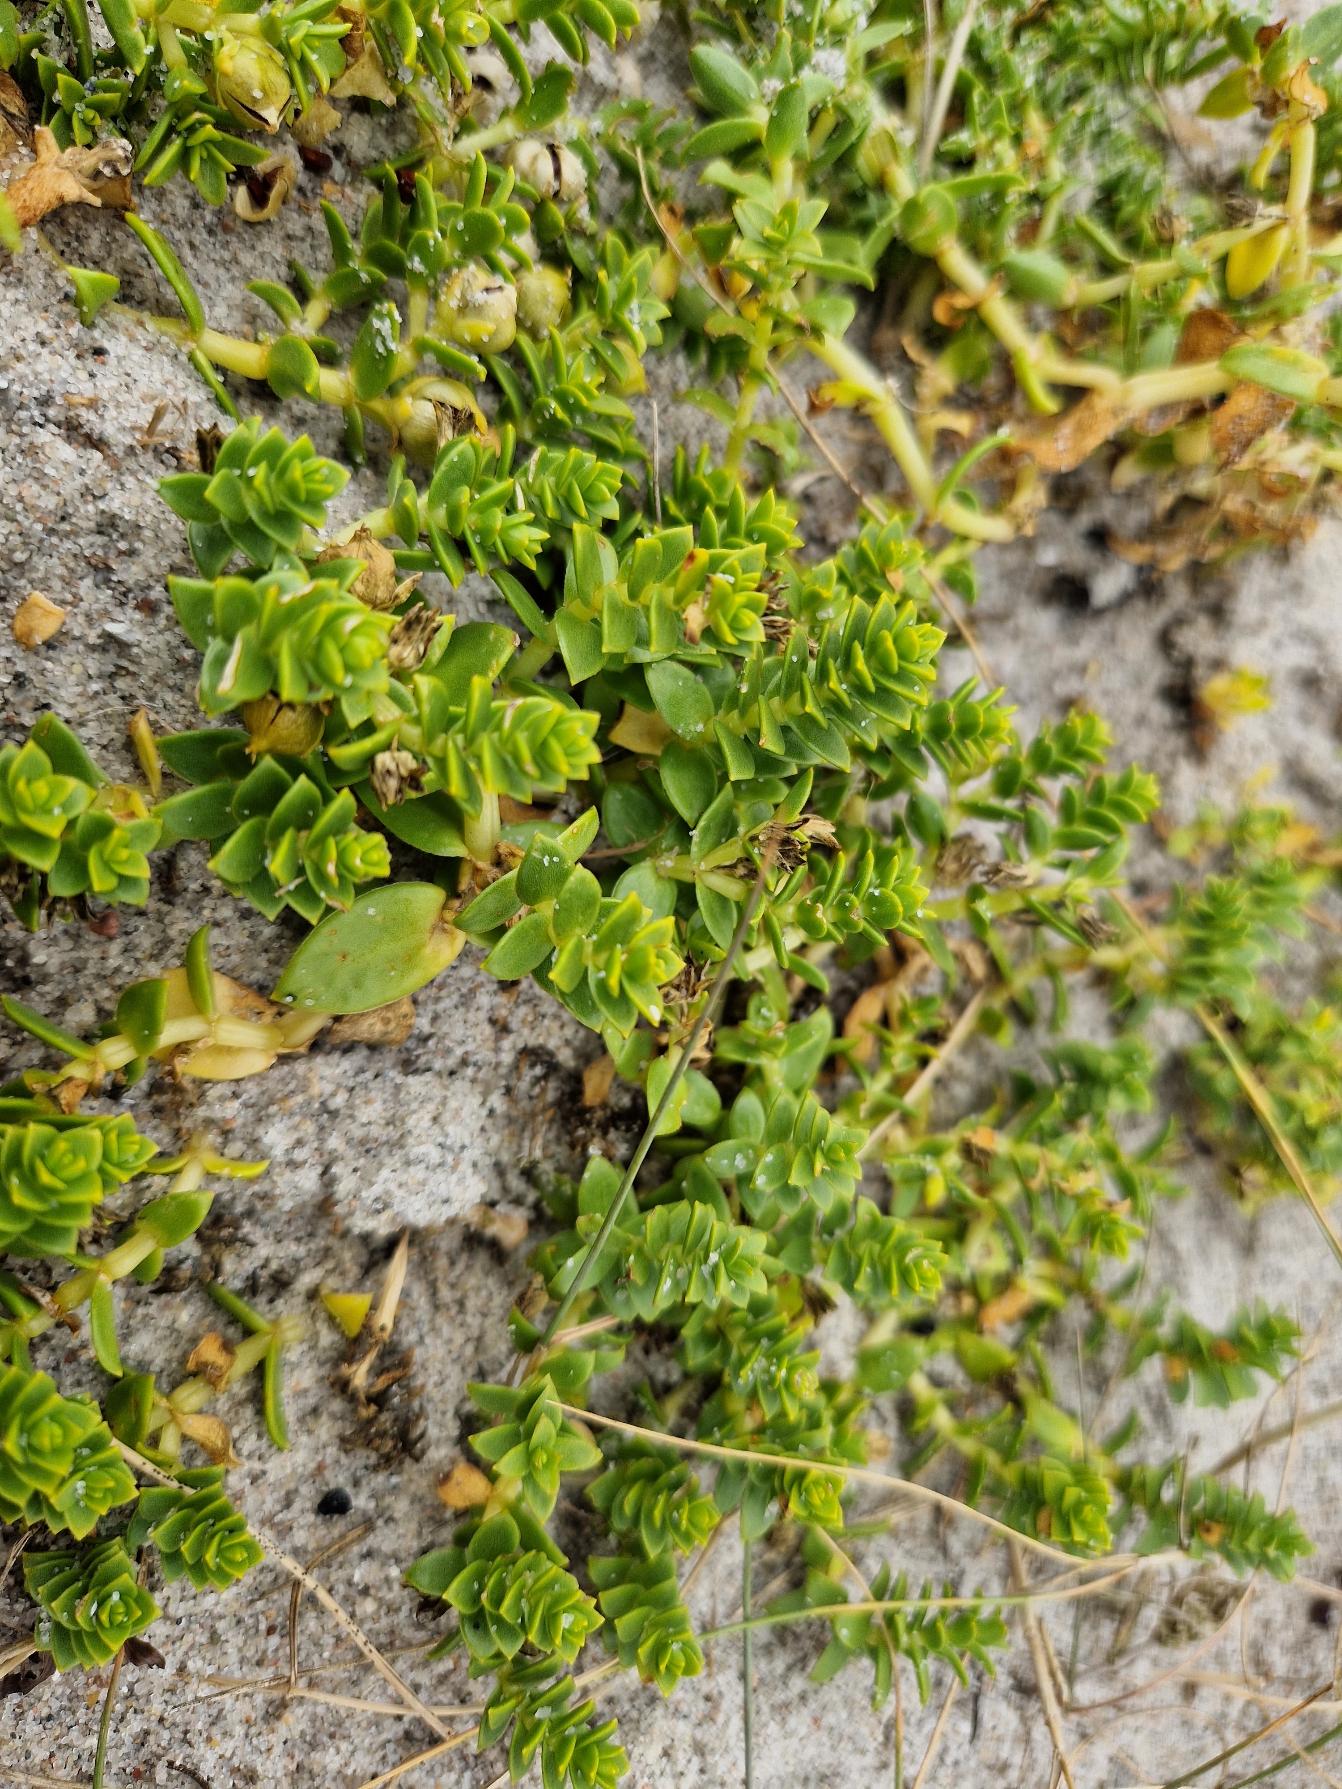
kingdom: Plantae
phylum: Tracheophyta
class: Magnoliopsida
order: Caryophyllales
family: Caryophyllaceae
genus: Honckenya
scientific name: Honckenya peploides
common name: Strandarve
